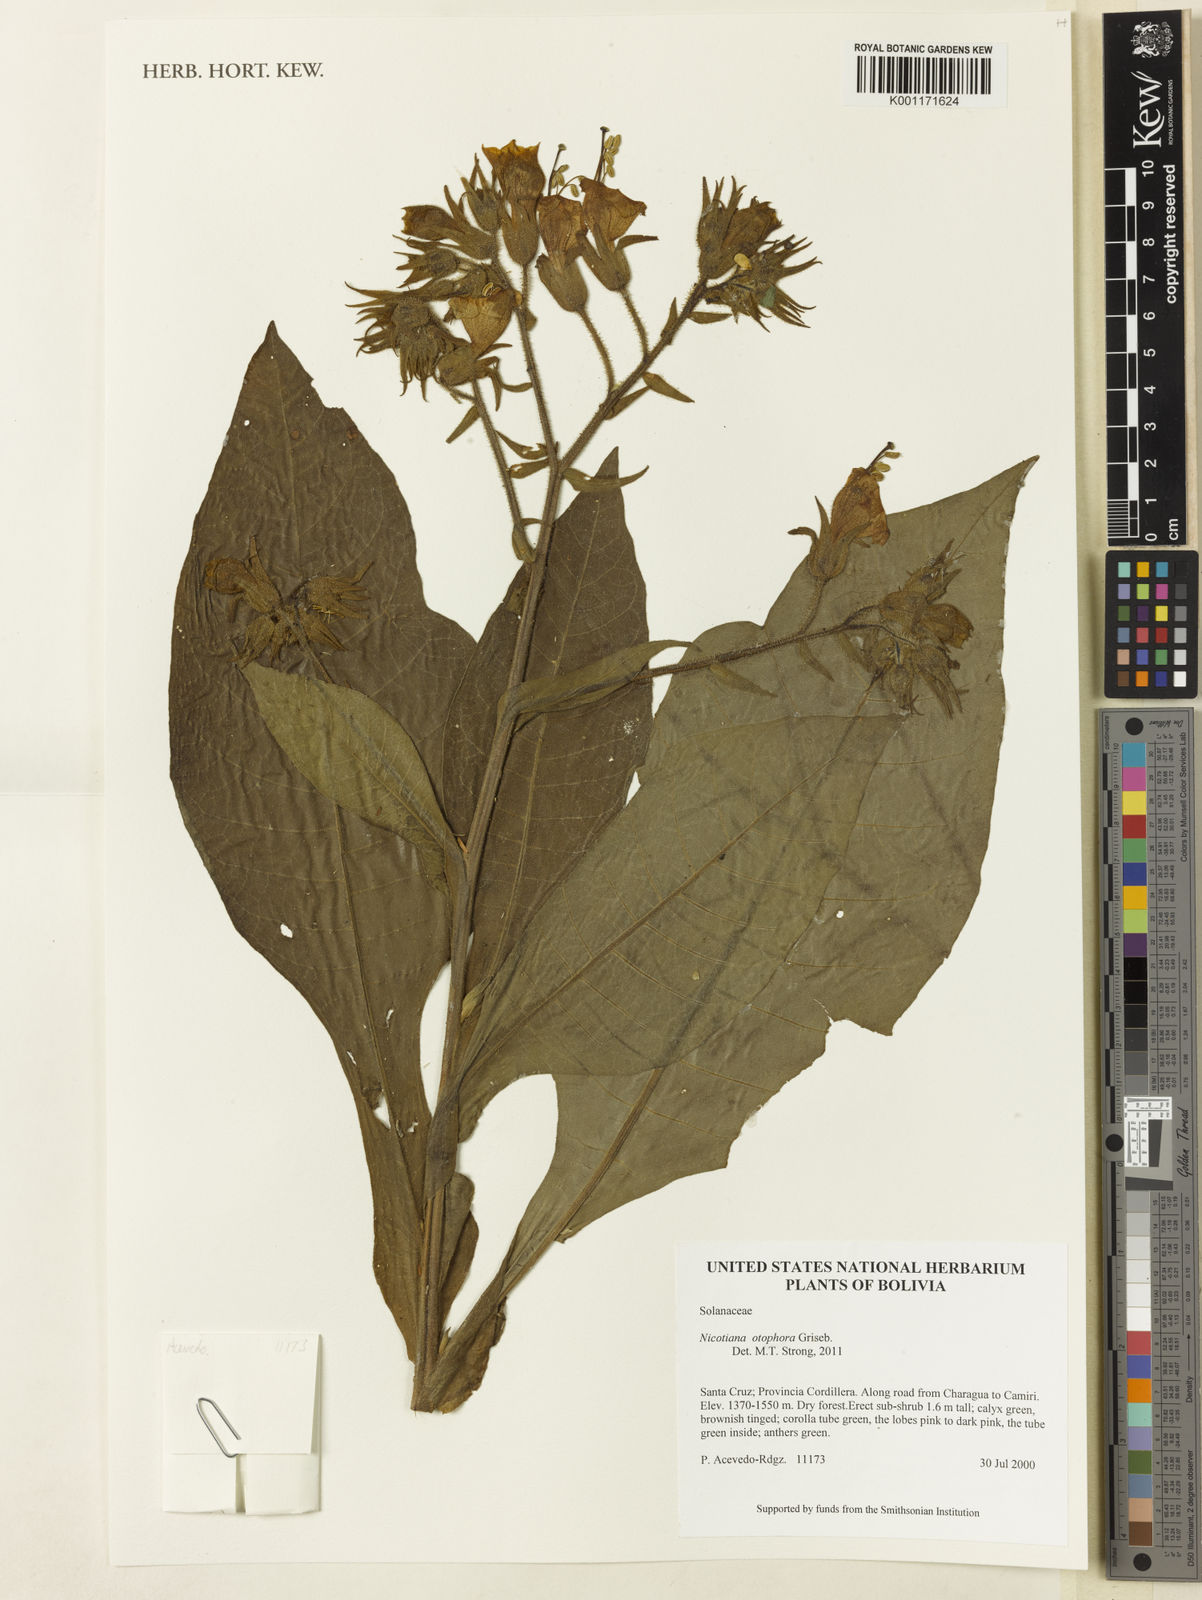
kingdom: Plantae
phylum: Tracheophyta
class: Magnoliopsida
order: Solanales
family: Solanaceae
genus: Nicotiana
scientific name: Nicotiana otophora
